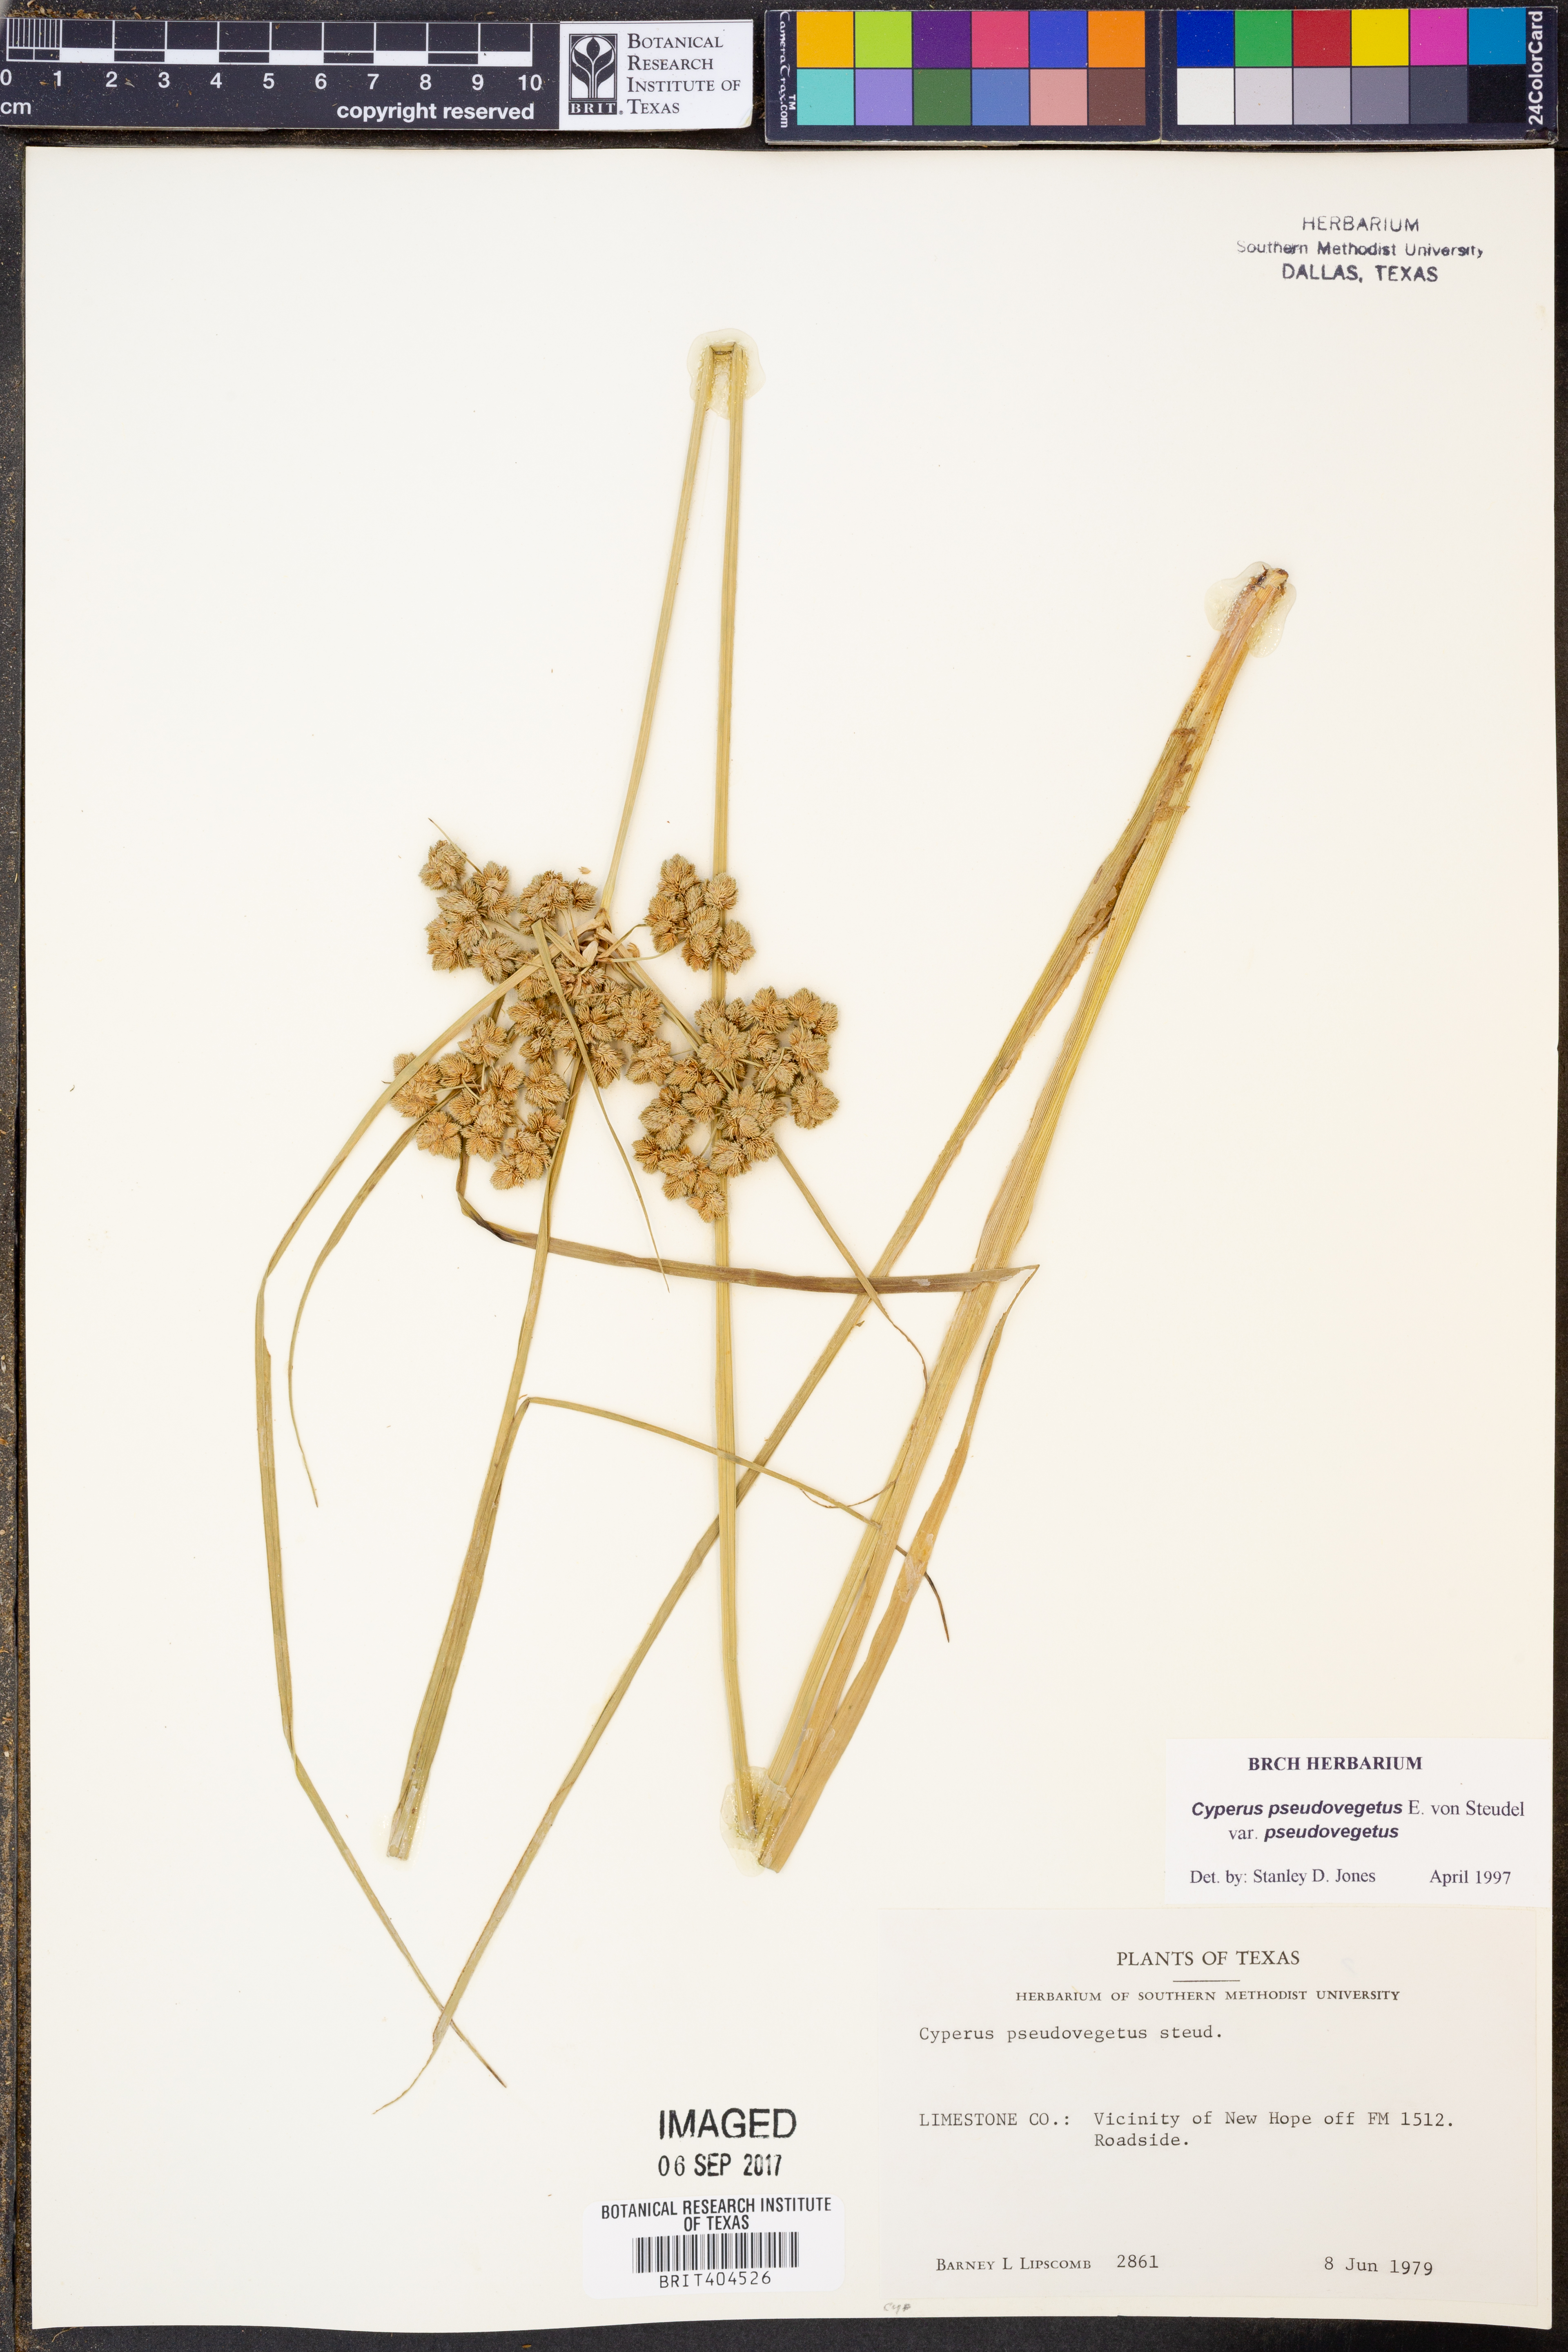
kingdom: Plantae
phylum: Tracheophyta
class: Liliopsida
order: Poales
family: Cyperaceae
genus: Cyperus
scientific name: Cyperus pseudovegetus
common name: Marsh flat sedge
